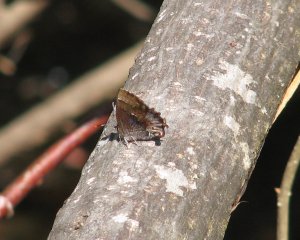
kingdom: Animalia
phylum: Arthropoda
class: Insecta
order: Lepidoptera
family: Lycaenidae
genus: Incisalia
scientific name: Incisalia henrici
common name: Henry's Elfin
